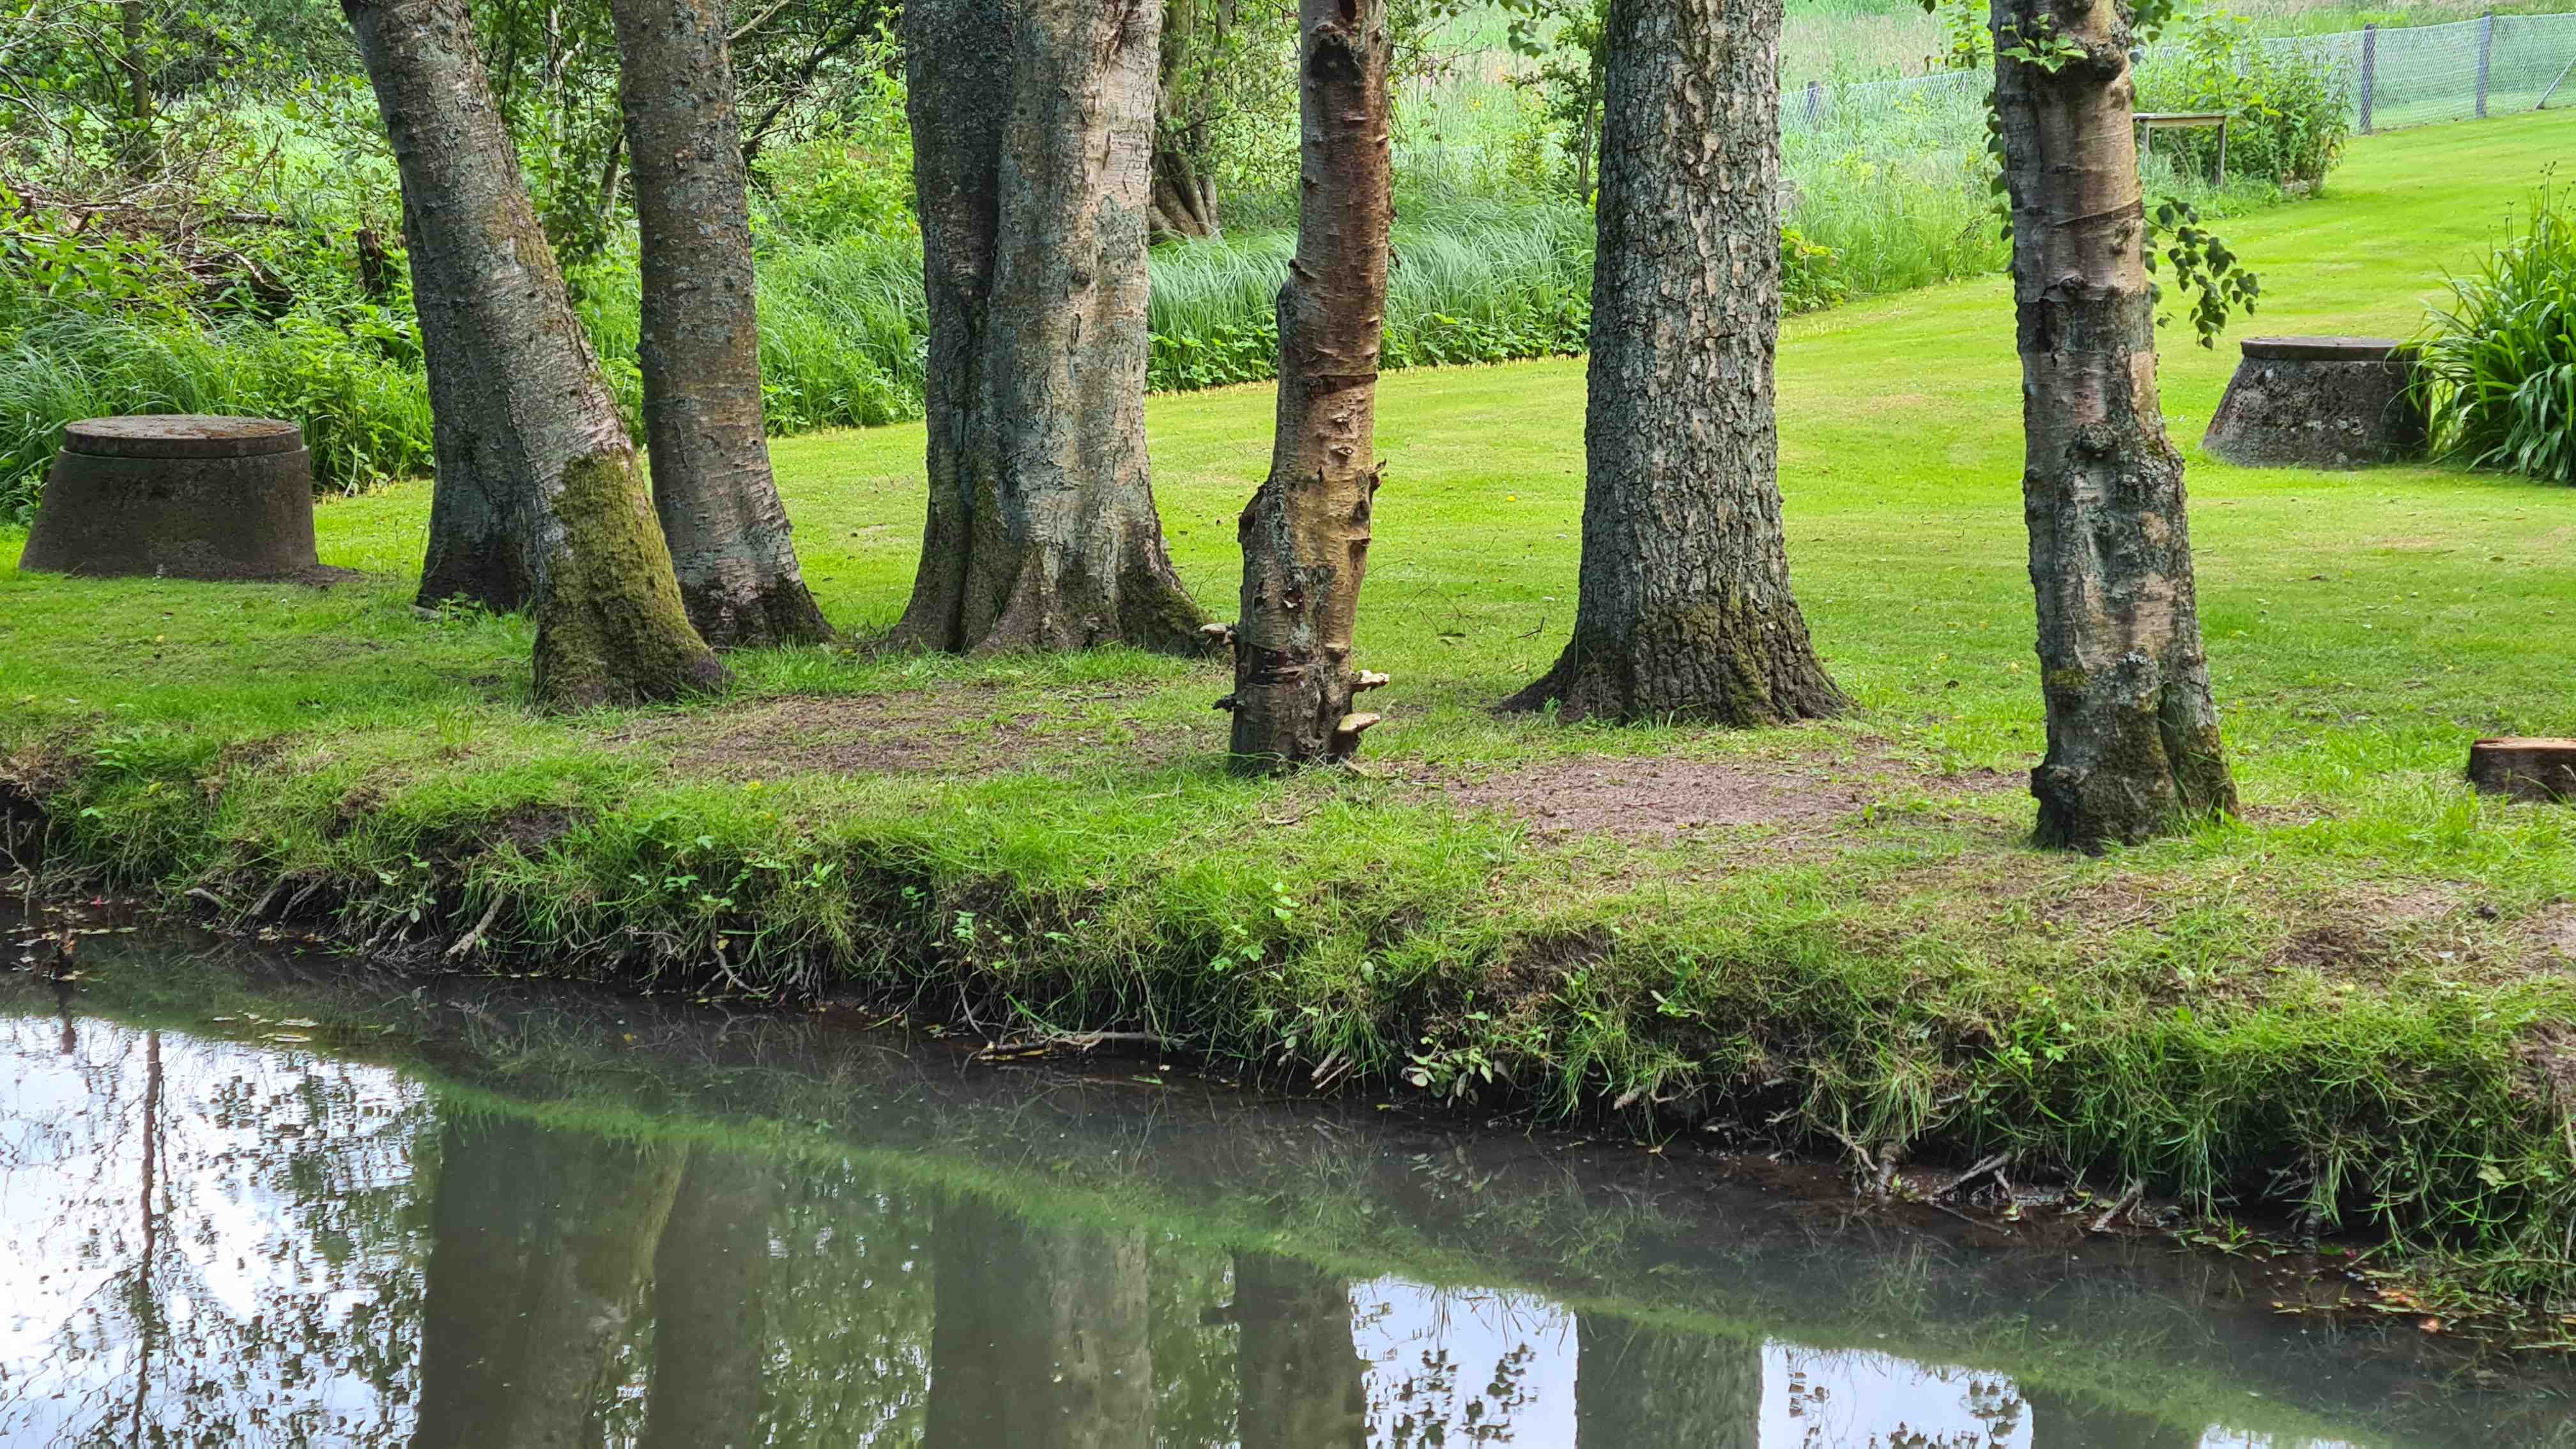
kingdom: Fungi
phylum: Basidiomycota
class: Agaricomycetes
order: Polyporales
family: Fomitopsidaceae
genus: Fomitopsis
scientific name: Fomitopsis betulina
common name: birkeporesvamp
